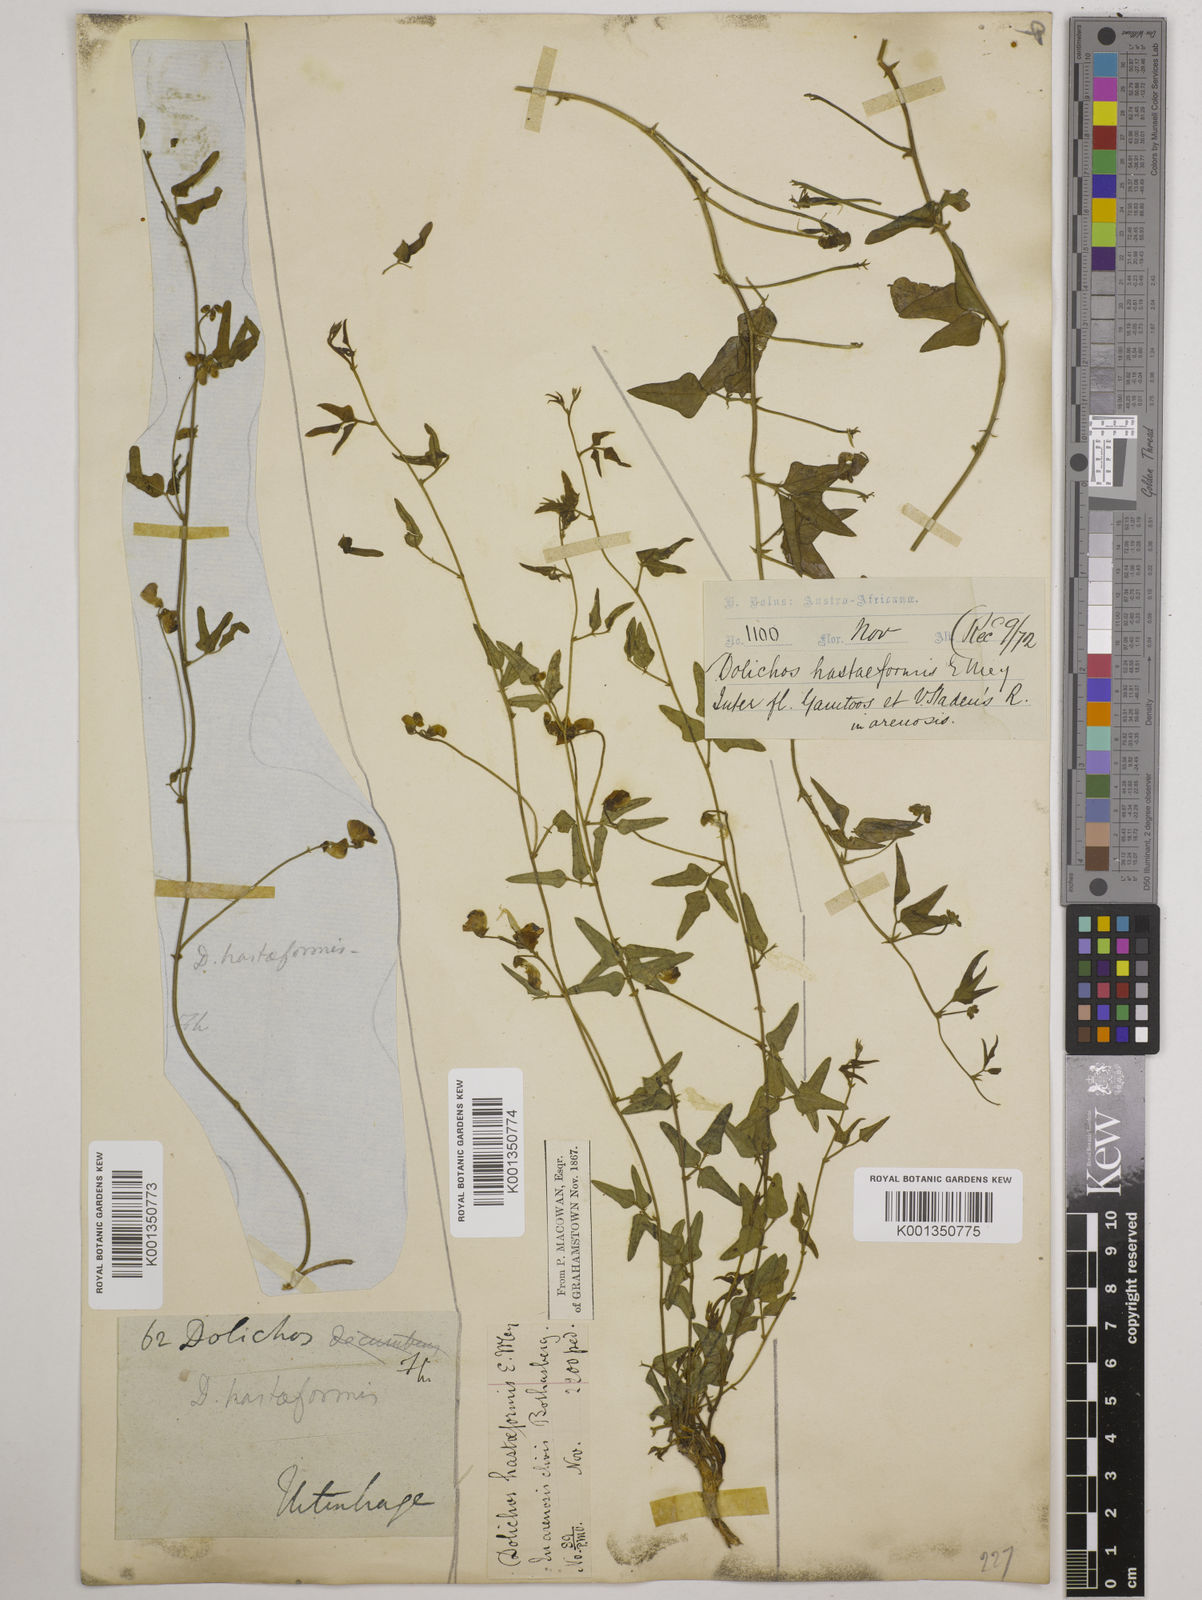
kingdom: Plantae
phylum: Tracheophyta
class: Magnoliopsida
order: Fabales
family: Fabaceae
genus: Dolichos
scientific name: Dolichos
